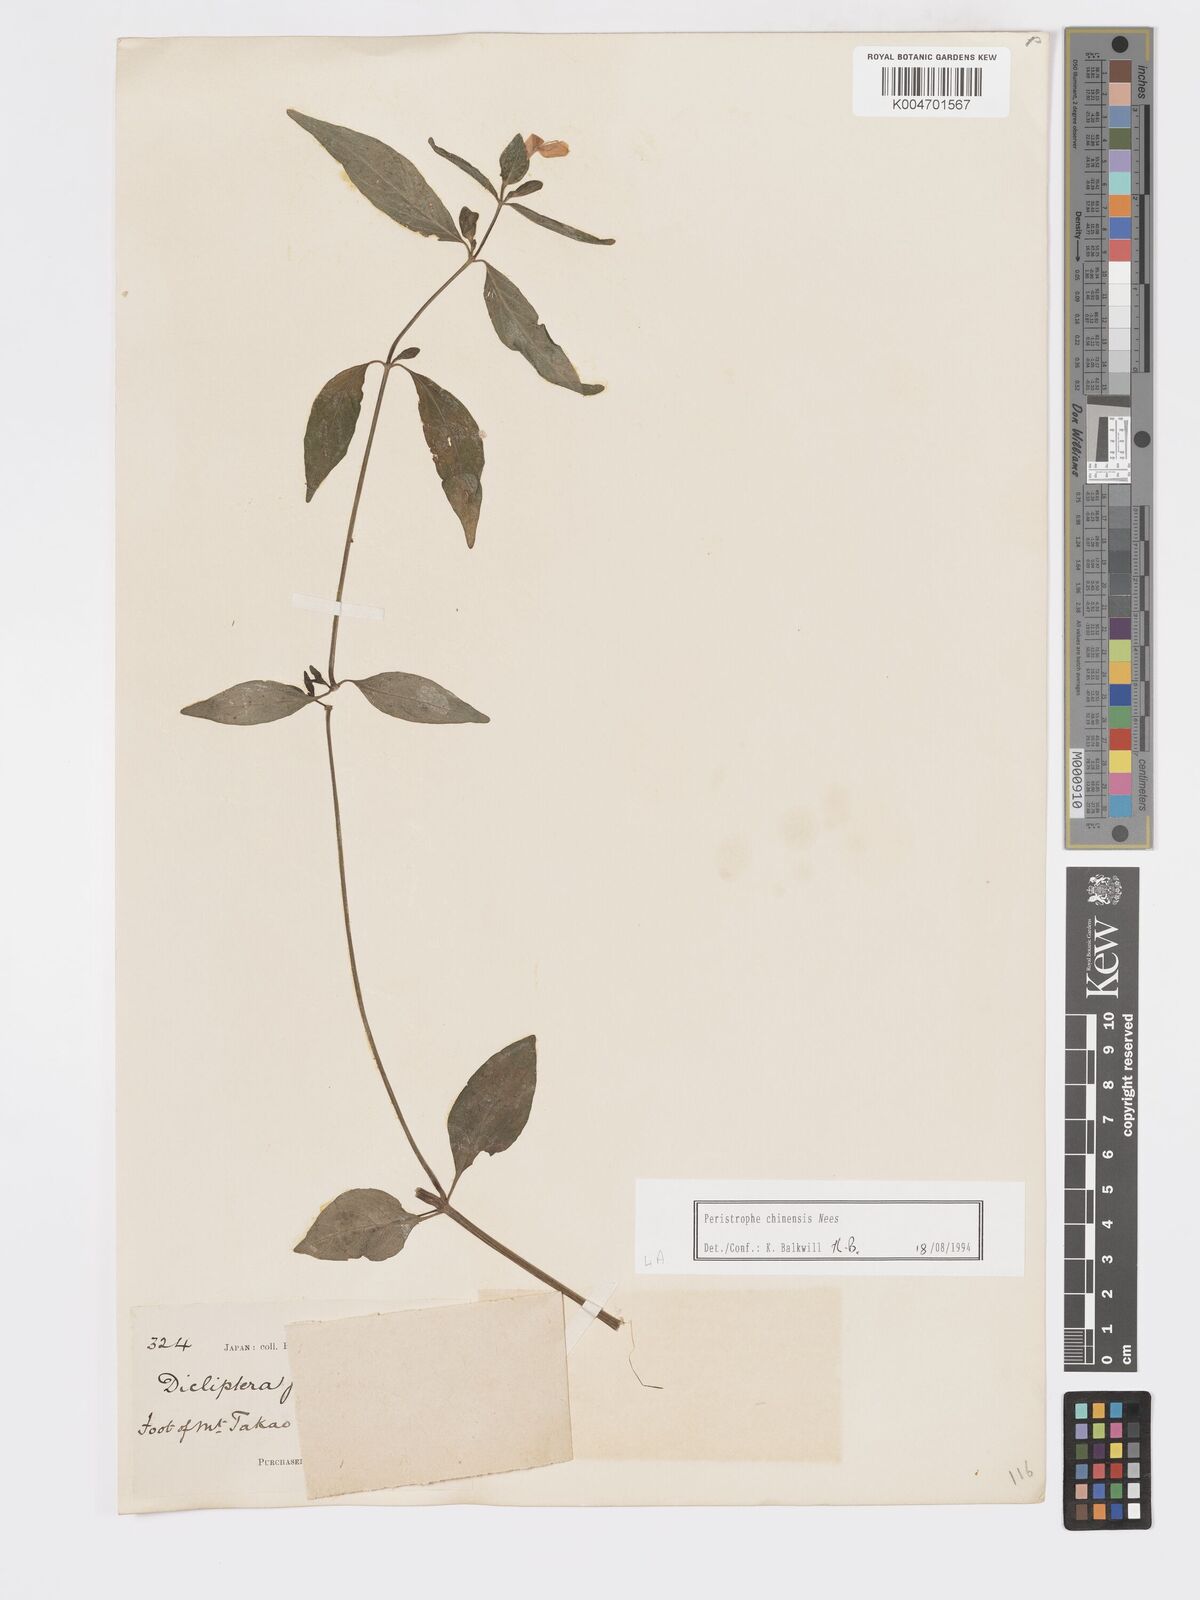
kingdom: Plantae
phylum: Tracheophyta
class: Magnoliopsida
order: Lamiales
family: Acanthaceae
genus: Dicliptera
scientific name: Dicliptera chinensis
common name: Chinese foldwing
